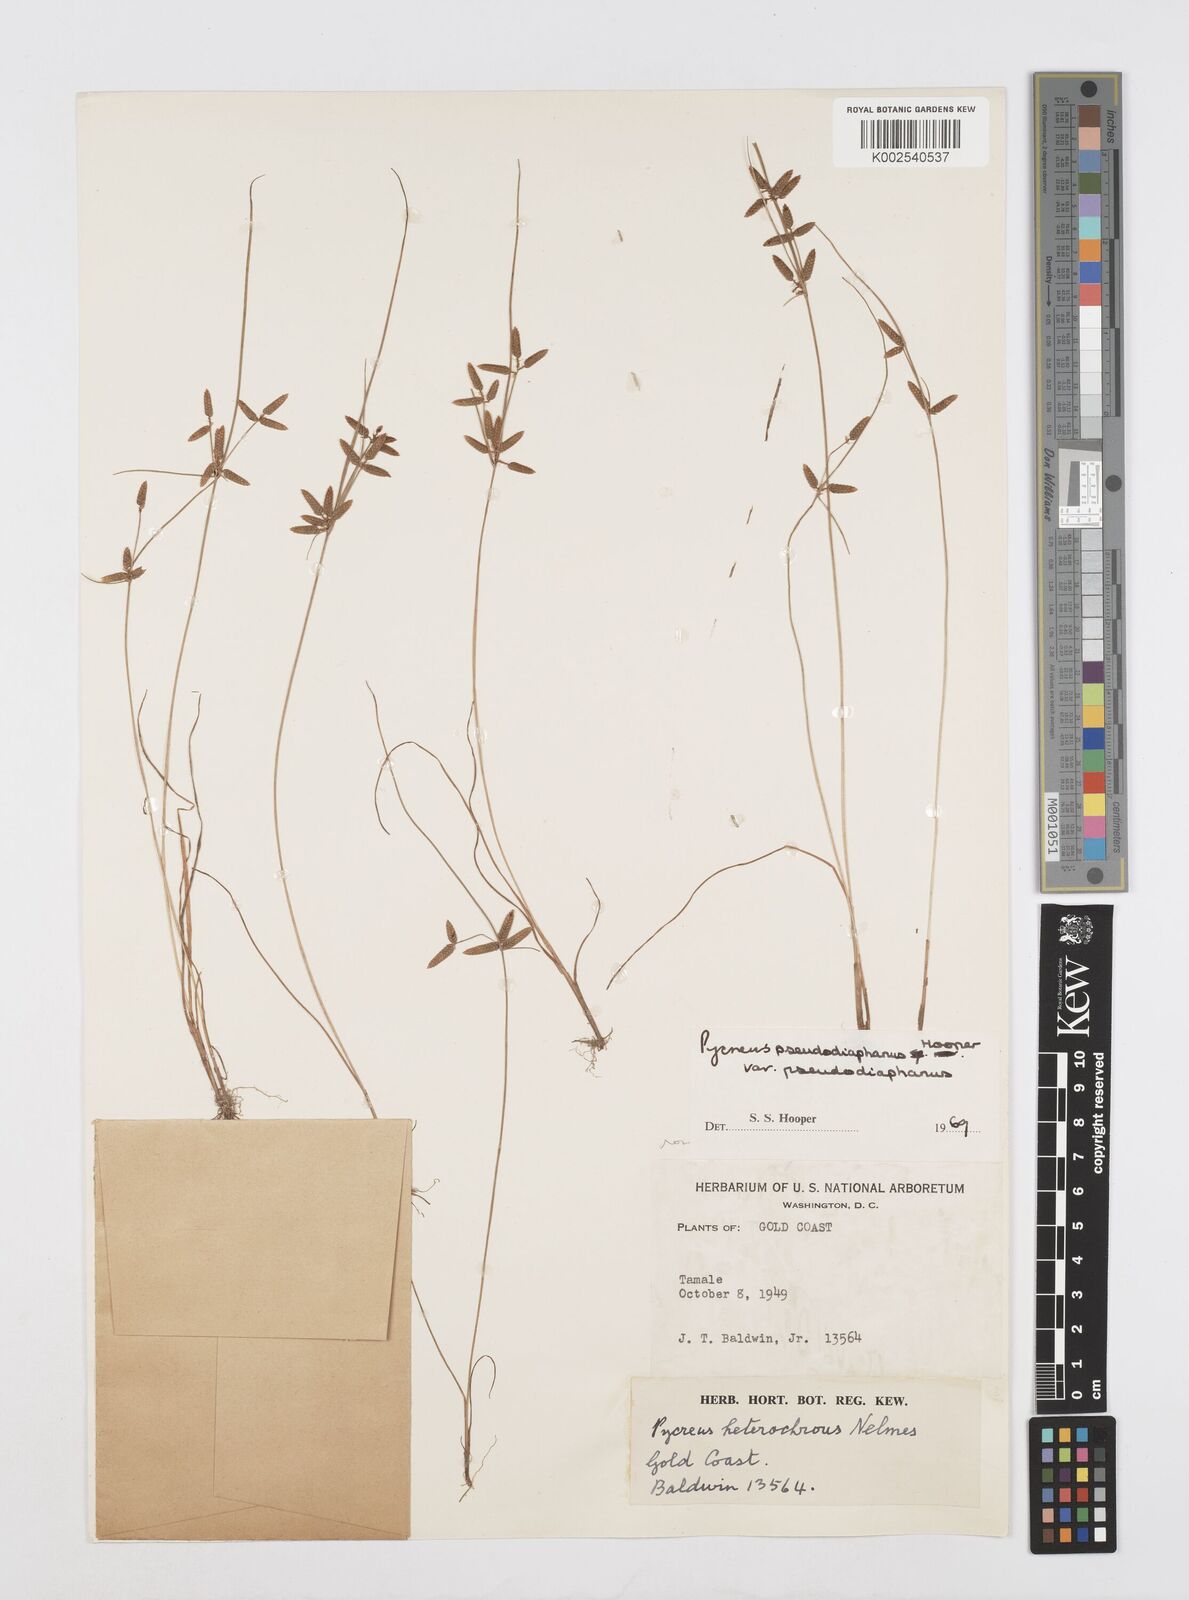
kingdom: Plantae
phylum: Tracheophyta
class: Liliopsida
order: Poales
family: Cyperaceae
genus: Cyperus
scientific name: Cyperus pseudodiaphanus
